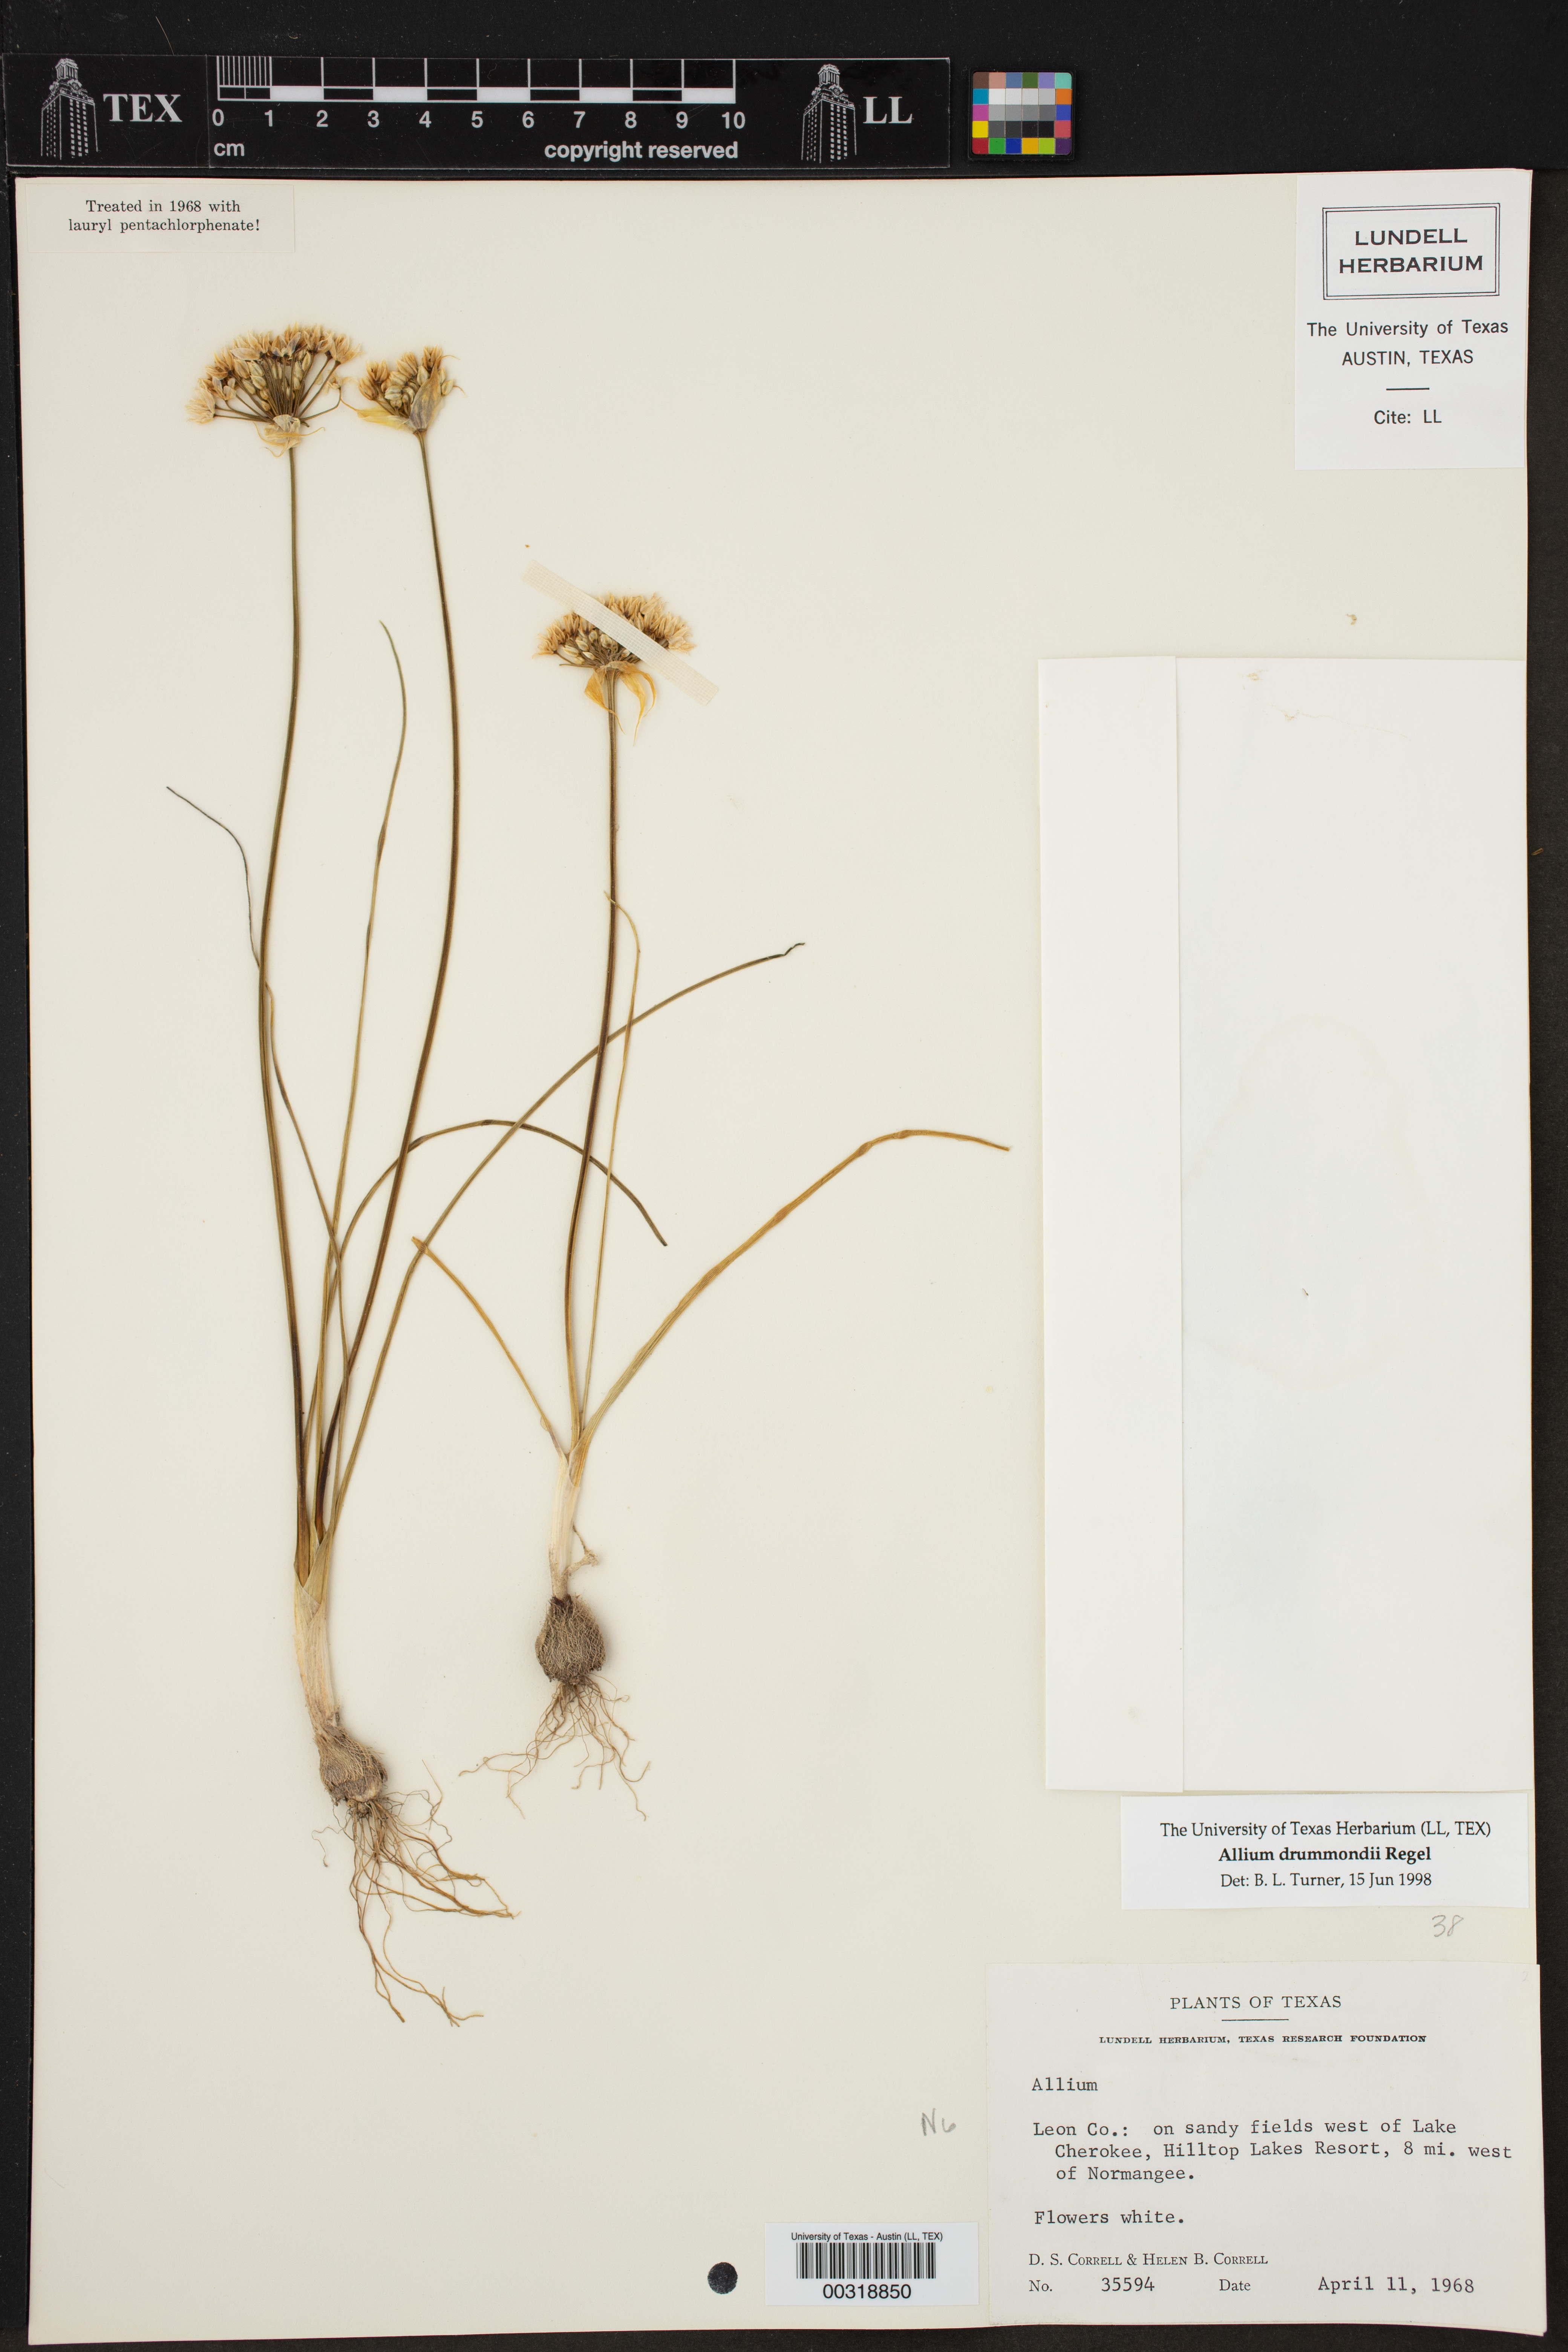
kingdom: Plantae
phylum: Tracheophyta
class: Liliopsida
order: Asparagales
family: Amaryllidaceae
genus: Allium
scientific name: Allium drummondii
